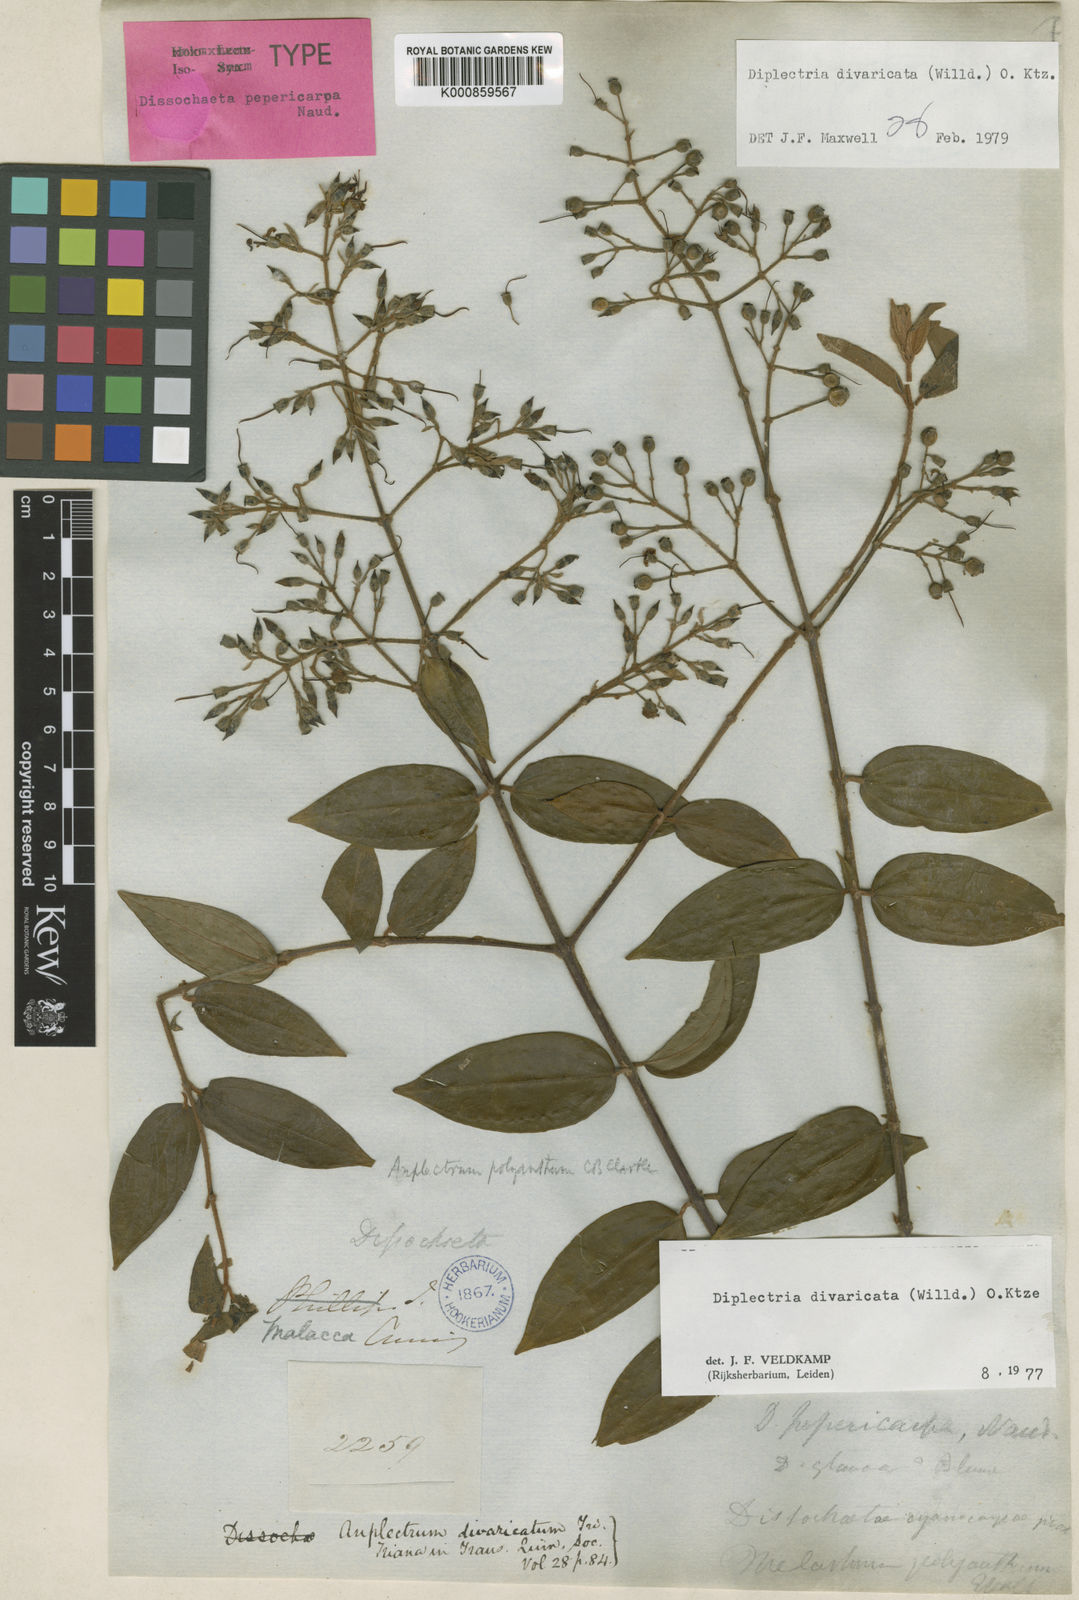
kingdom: Plantae
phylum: Tracheophyta
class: Magnoliopsida
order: Myrtales
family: Melastomataceae
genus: Diplectria
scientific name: Diplectria divaricata
